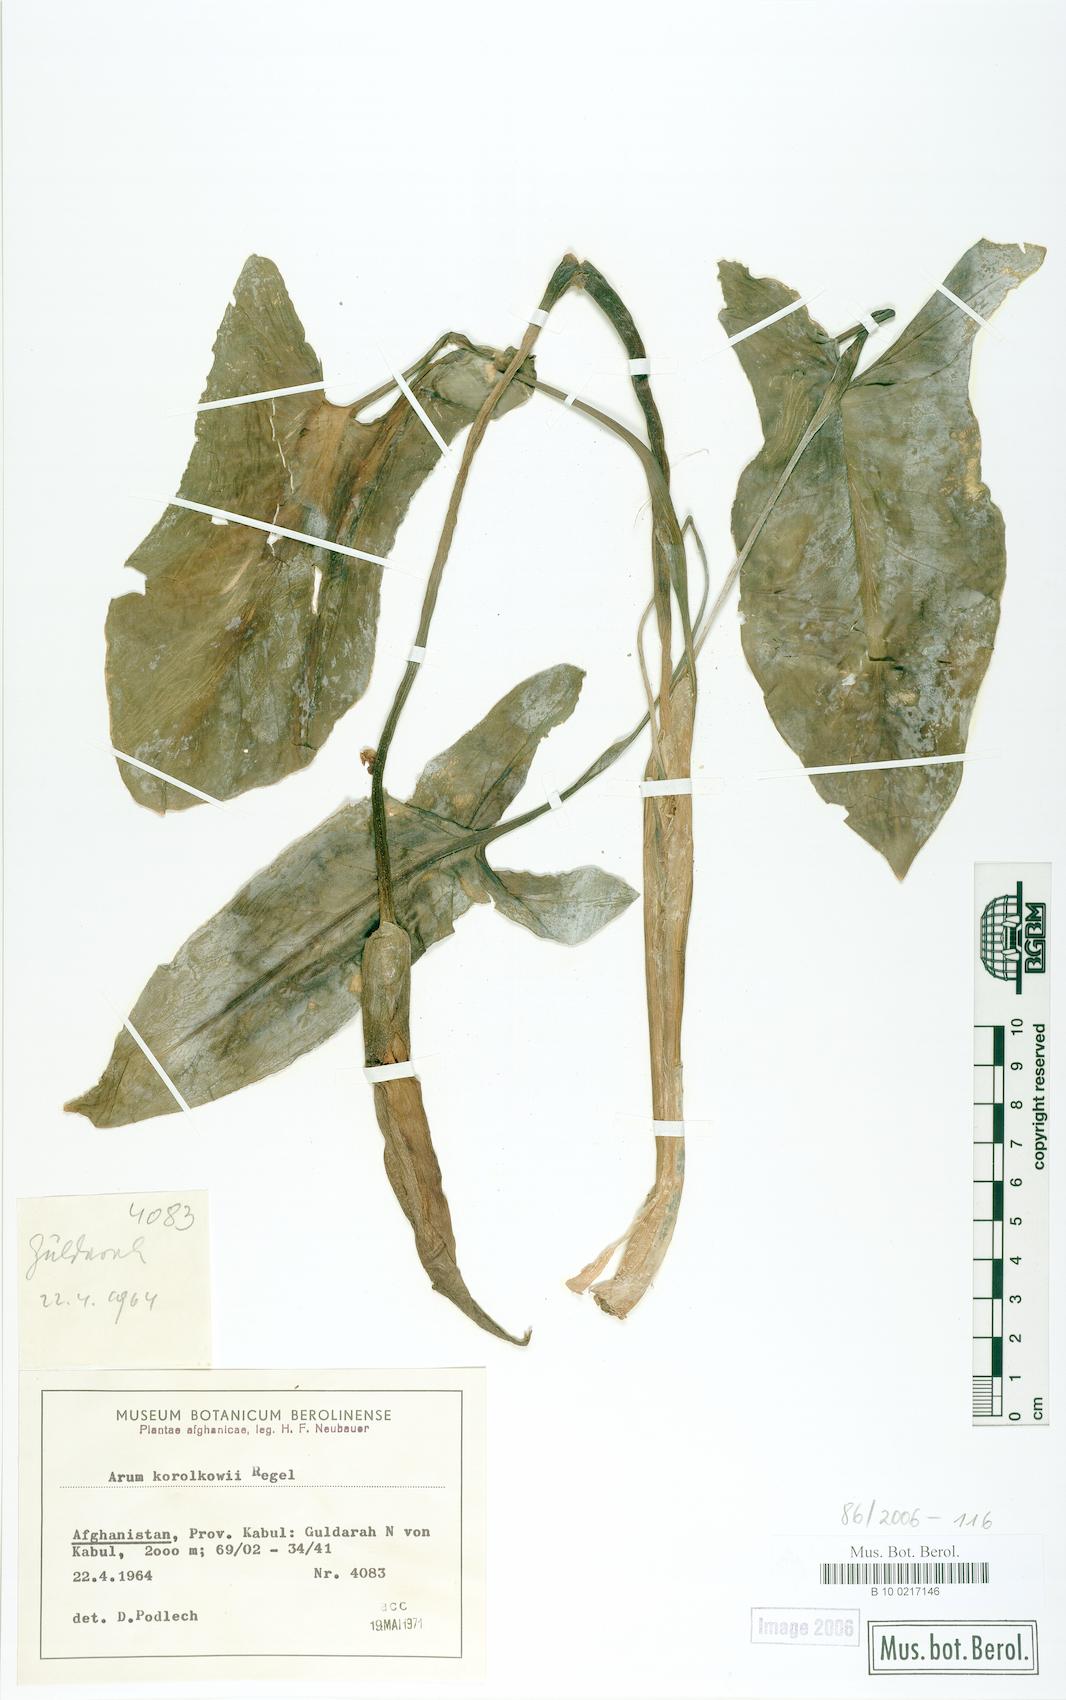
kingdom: Plantae
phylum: Tracheophyta
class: Liliopsida
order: Alismatales
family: Araceae
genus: Arum
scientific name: Arum korolkowii
